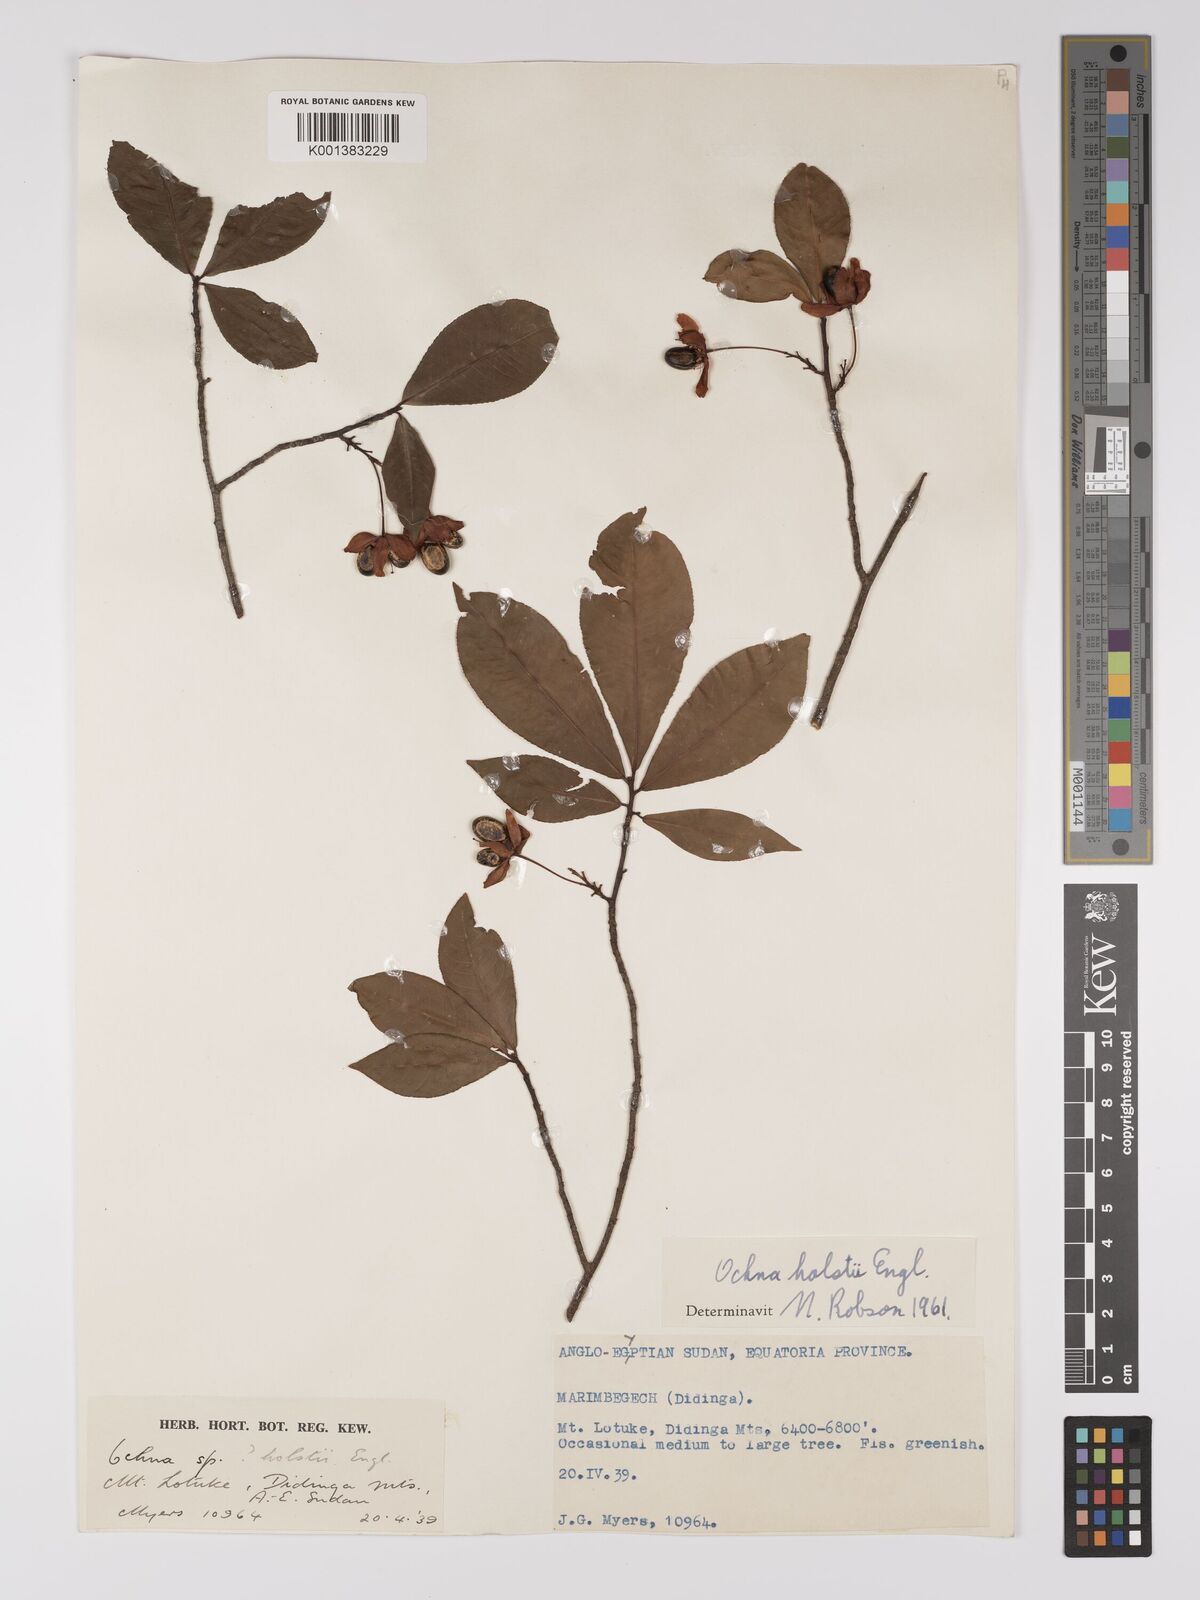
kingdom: Plantae
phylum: Tracheophyta
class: Magnoliopsida
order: Malpighiales
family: Ochnaceae
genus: Ochna
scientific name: Ochna holstii
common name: Red ironwood
